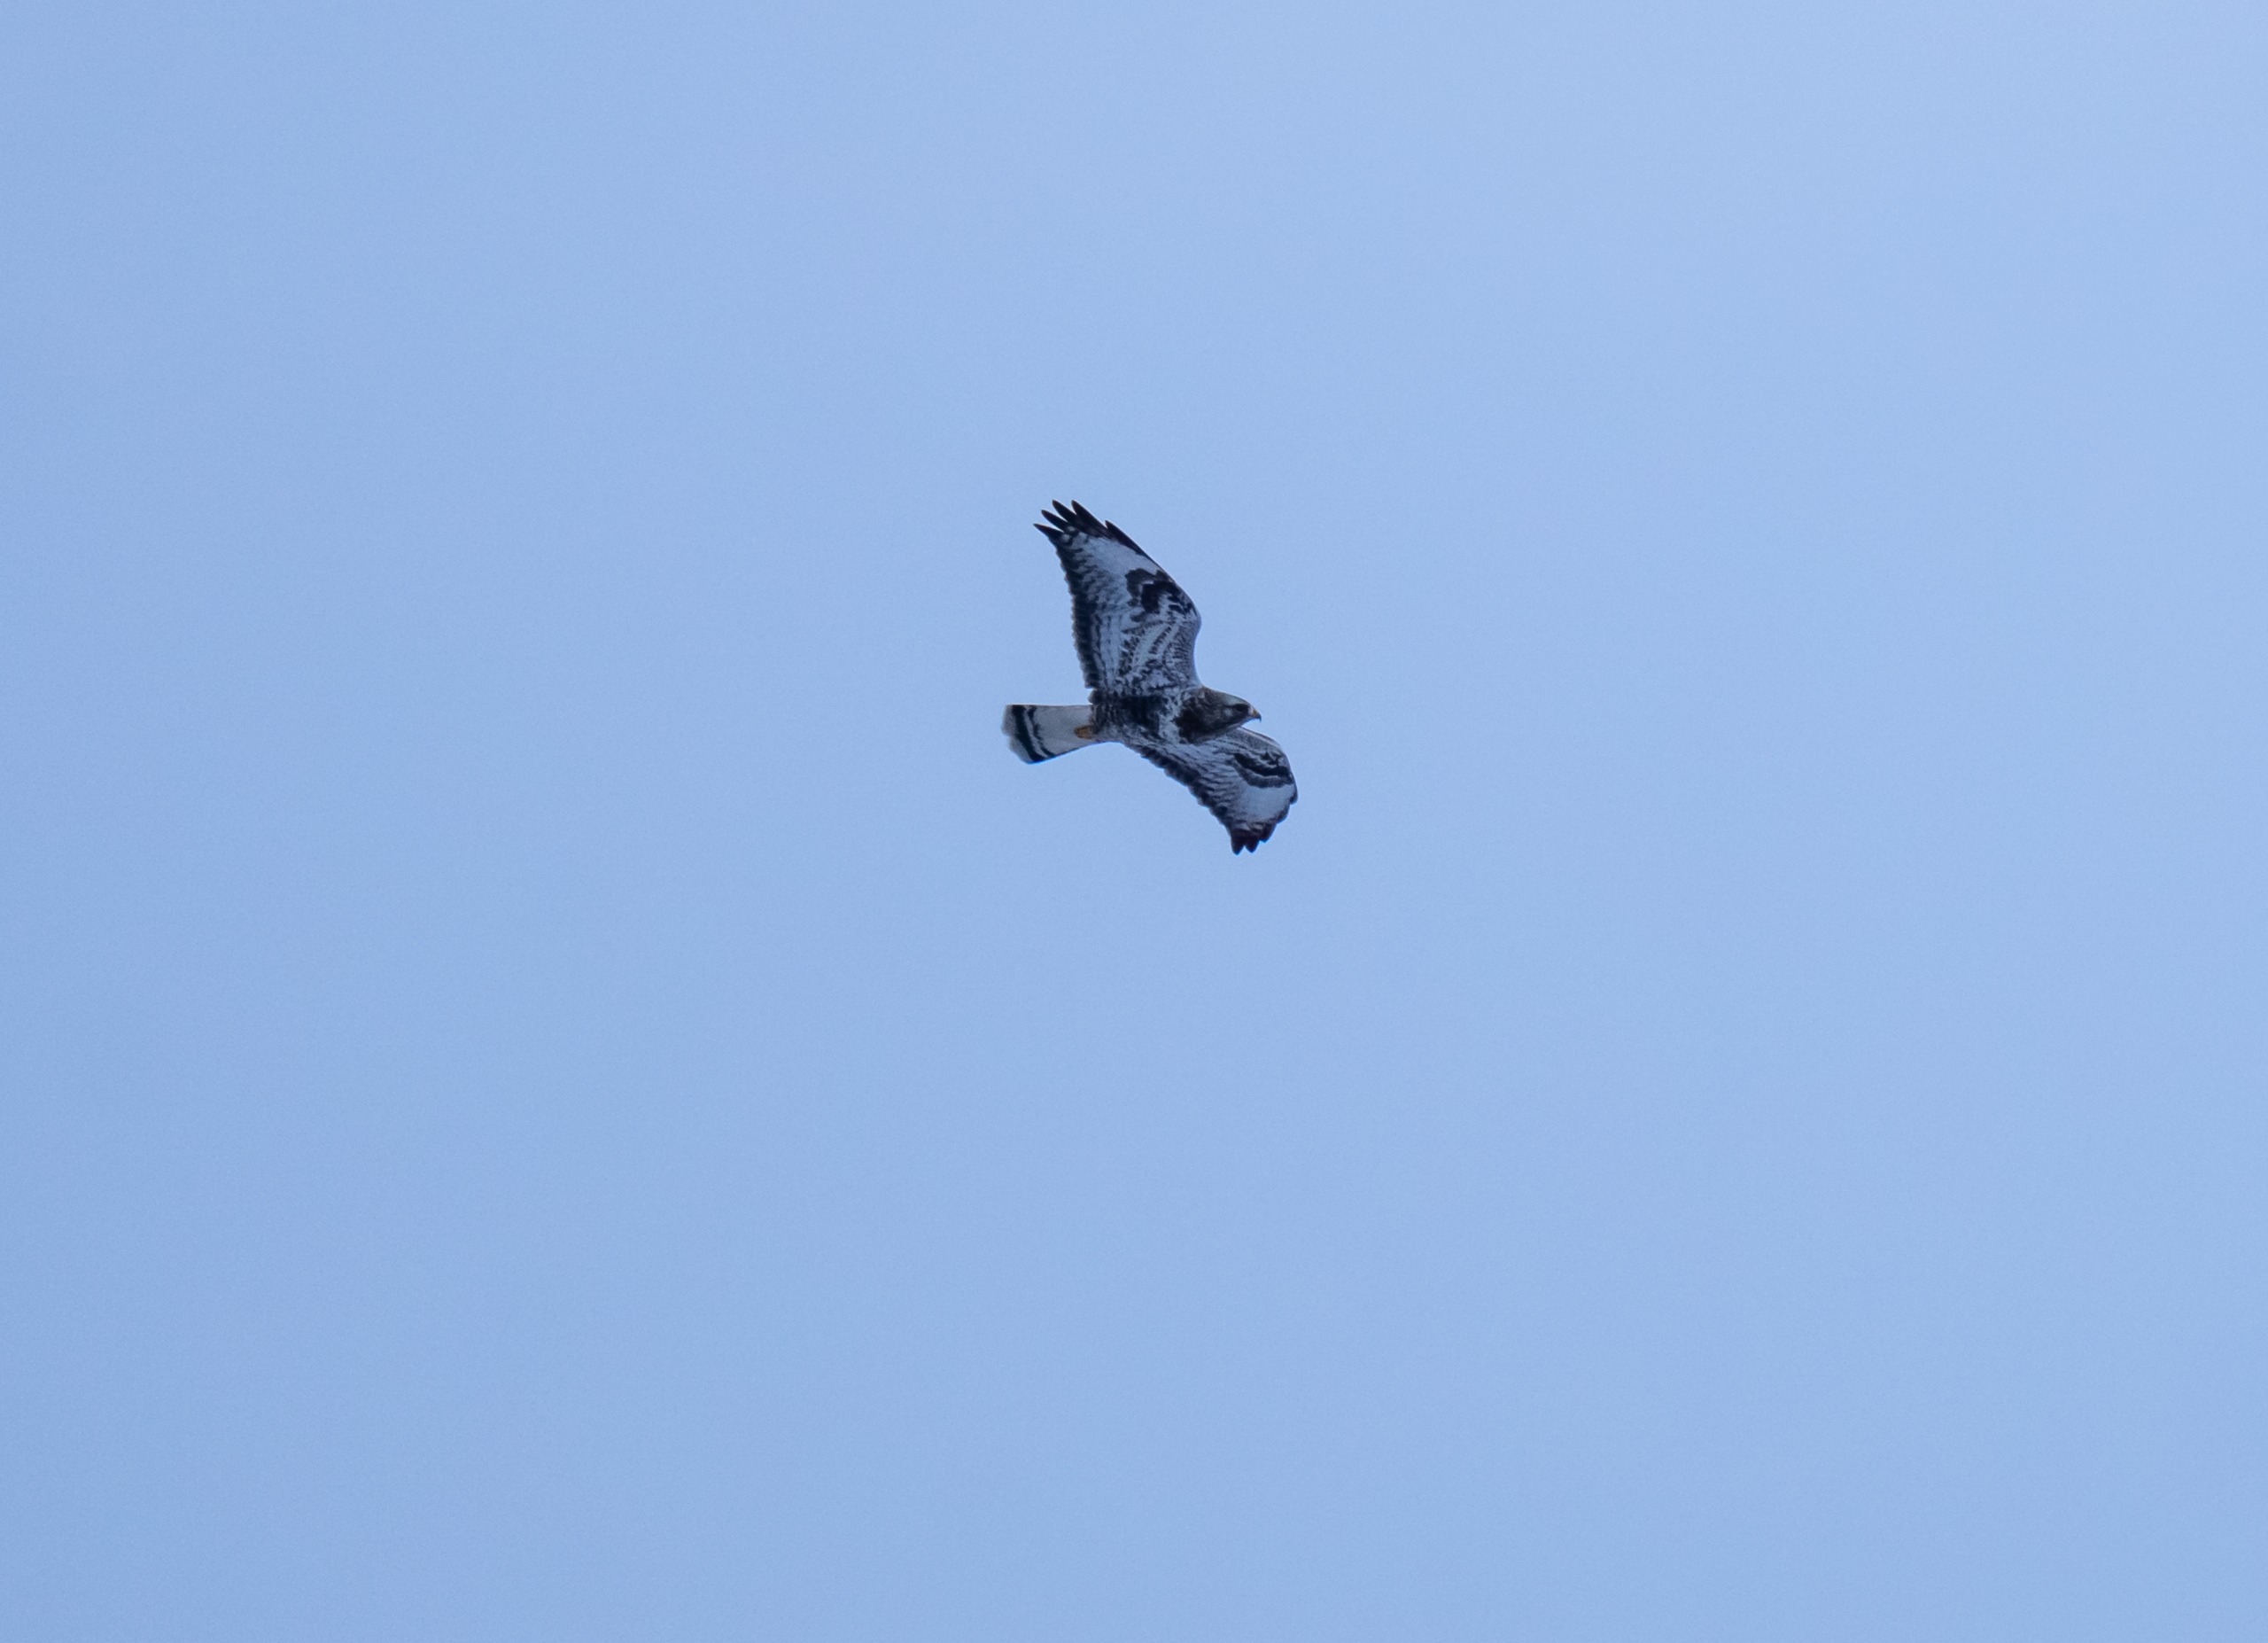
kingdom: Animalia
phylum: Chordata
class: Aves
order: Accipitriformes
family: Accipitridae
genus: Buteo
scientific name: Buteo lagopus
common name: Fjeldvåge
